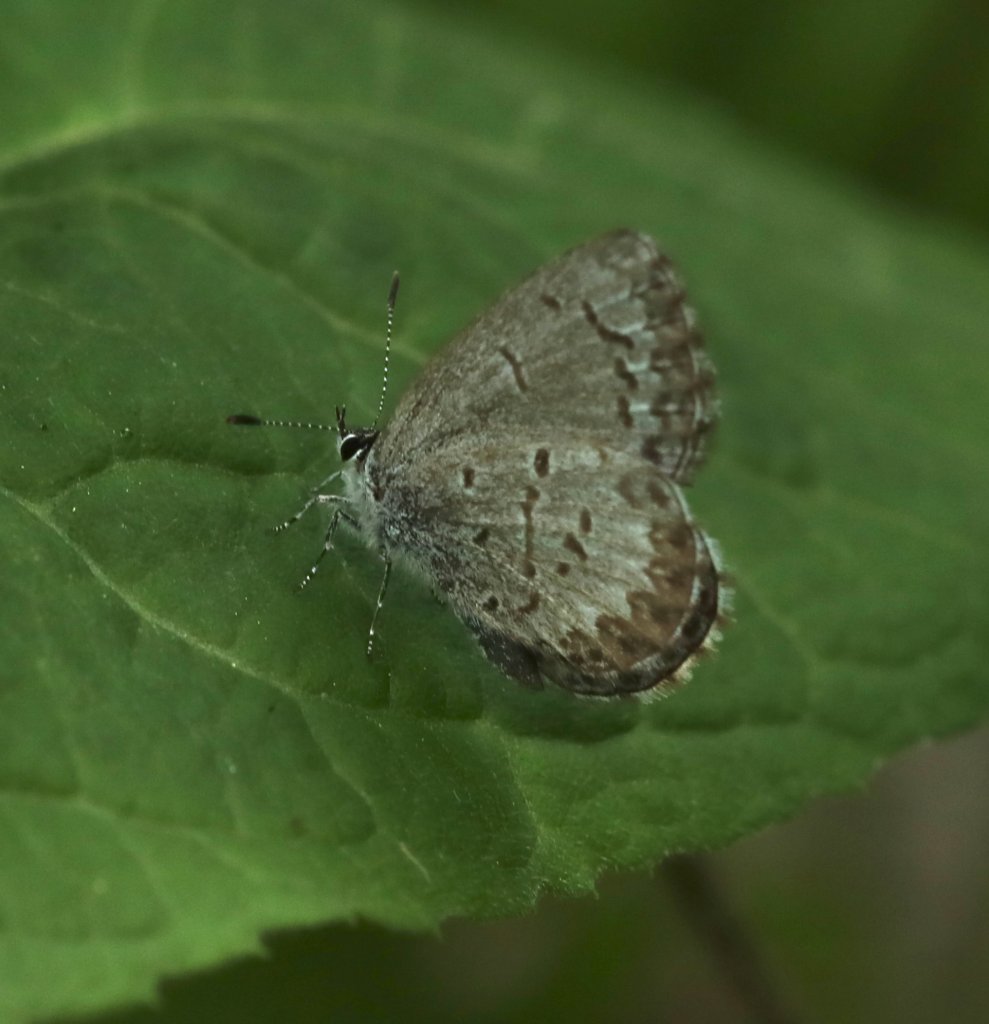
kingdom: Animalia
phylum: Arthropoda
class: Insecta
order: Lepidoptera
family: Lycaenidae
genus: Celastrina
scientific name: Celastrina lucia
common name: Northern Spring Azure
